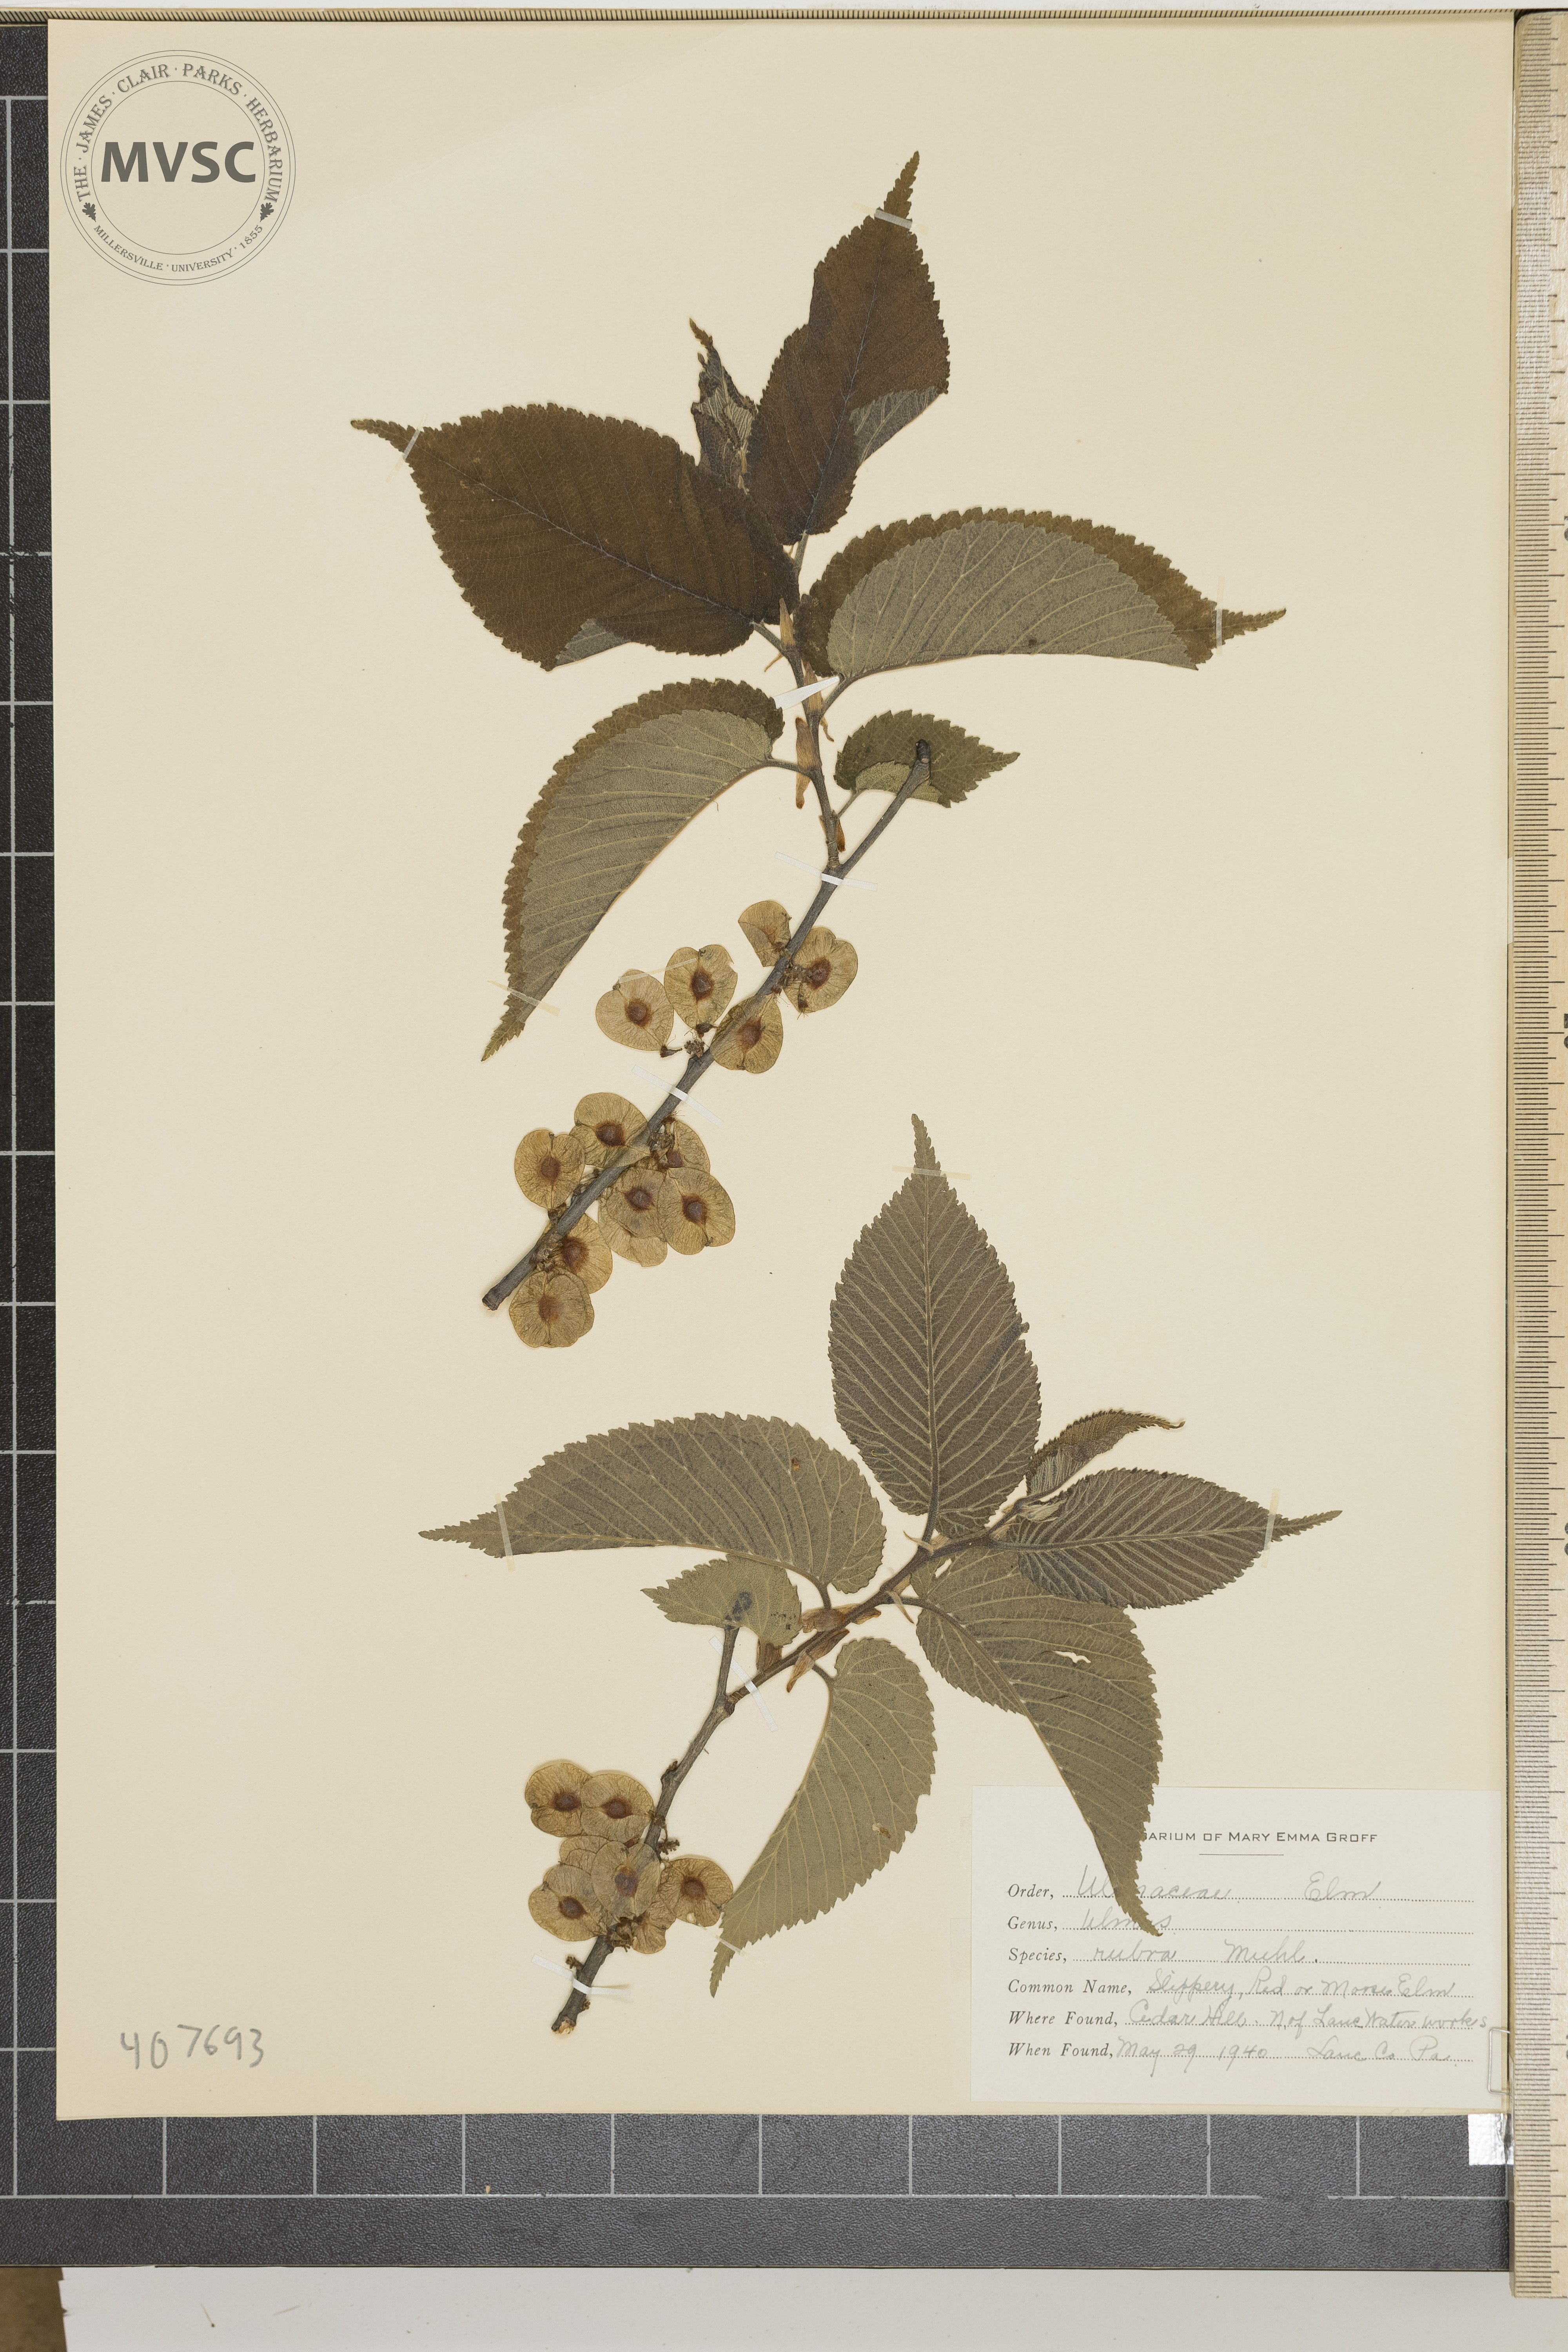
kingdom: Plantae
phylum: Tracheophyta
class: Magnoliopsida
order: Rosales
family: Ulmaceae
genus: Ulmus
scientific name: Ulmus rubra
